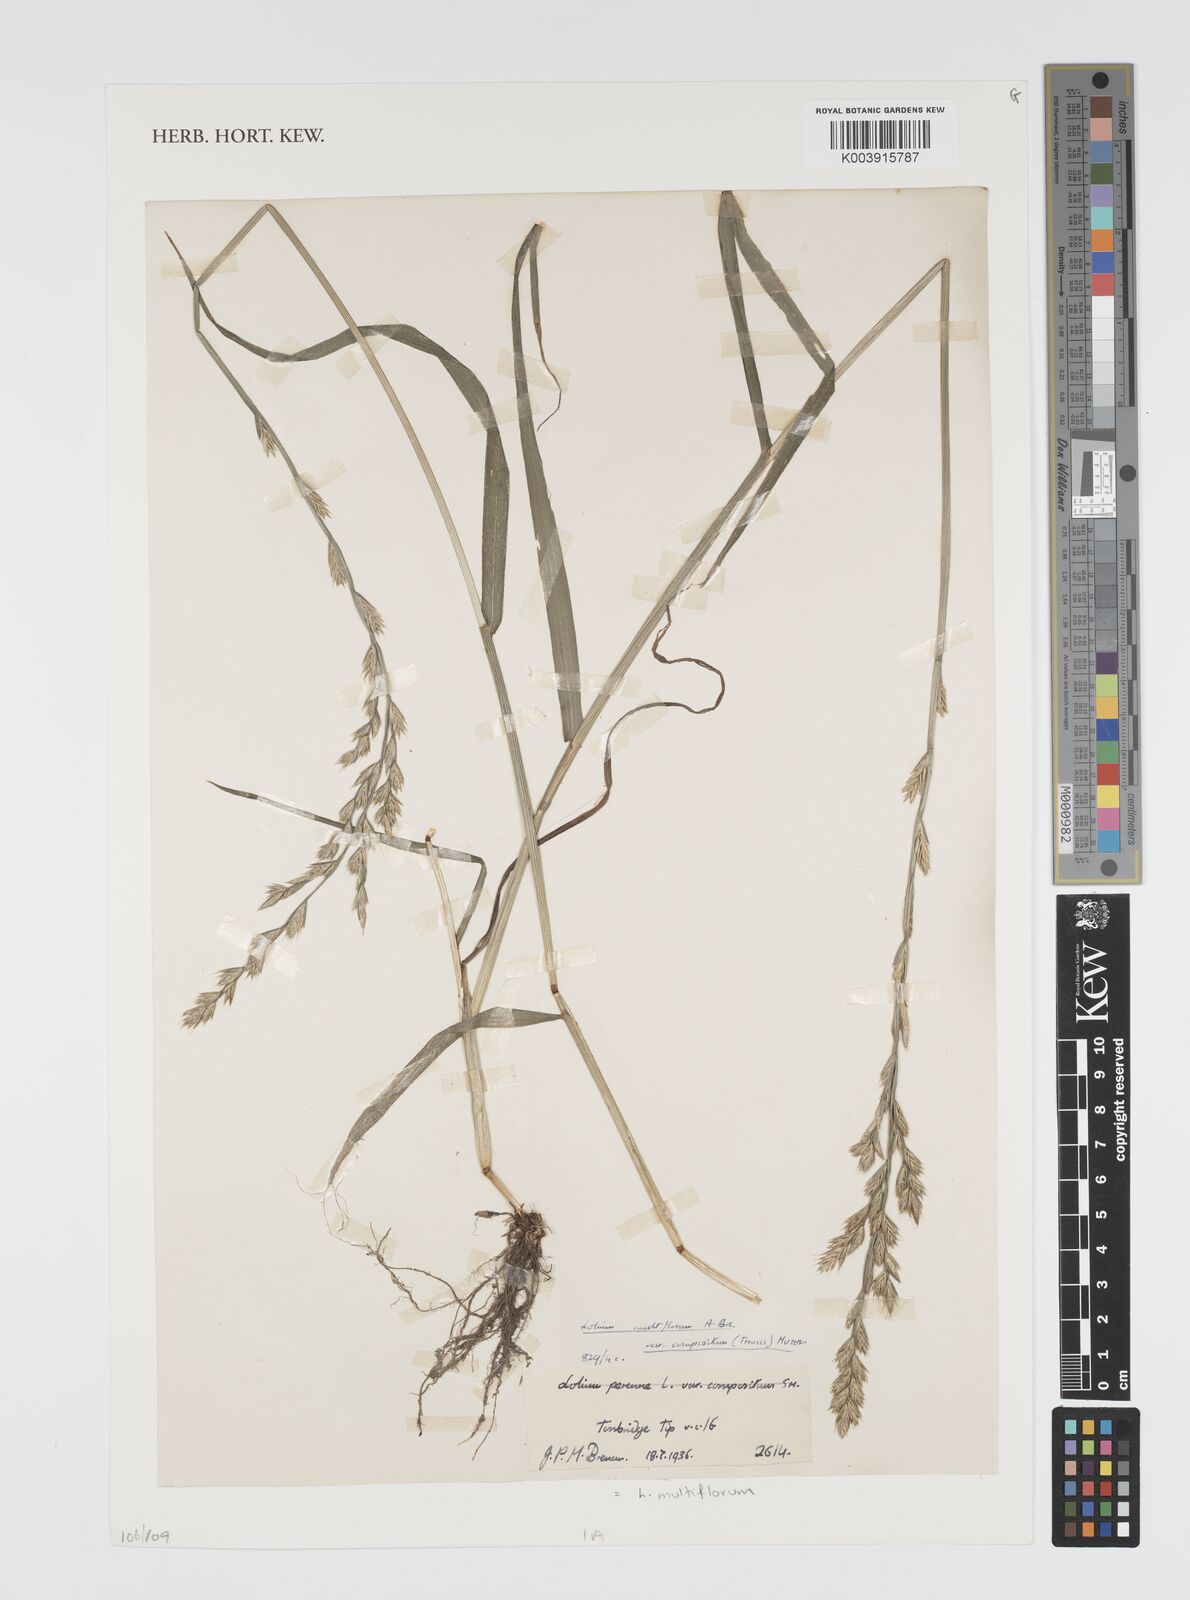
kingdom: Plantae
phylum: Tracheophyta
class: Liliopsida
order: Poales
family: Poaceae
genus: Lolium
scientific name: Lolium multiflorum
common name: Annual ryegrass
